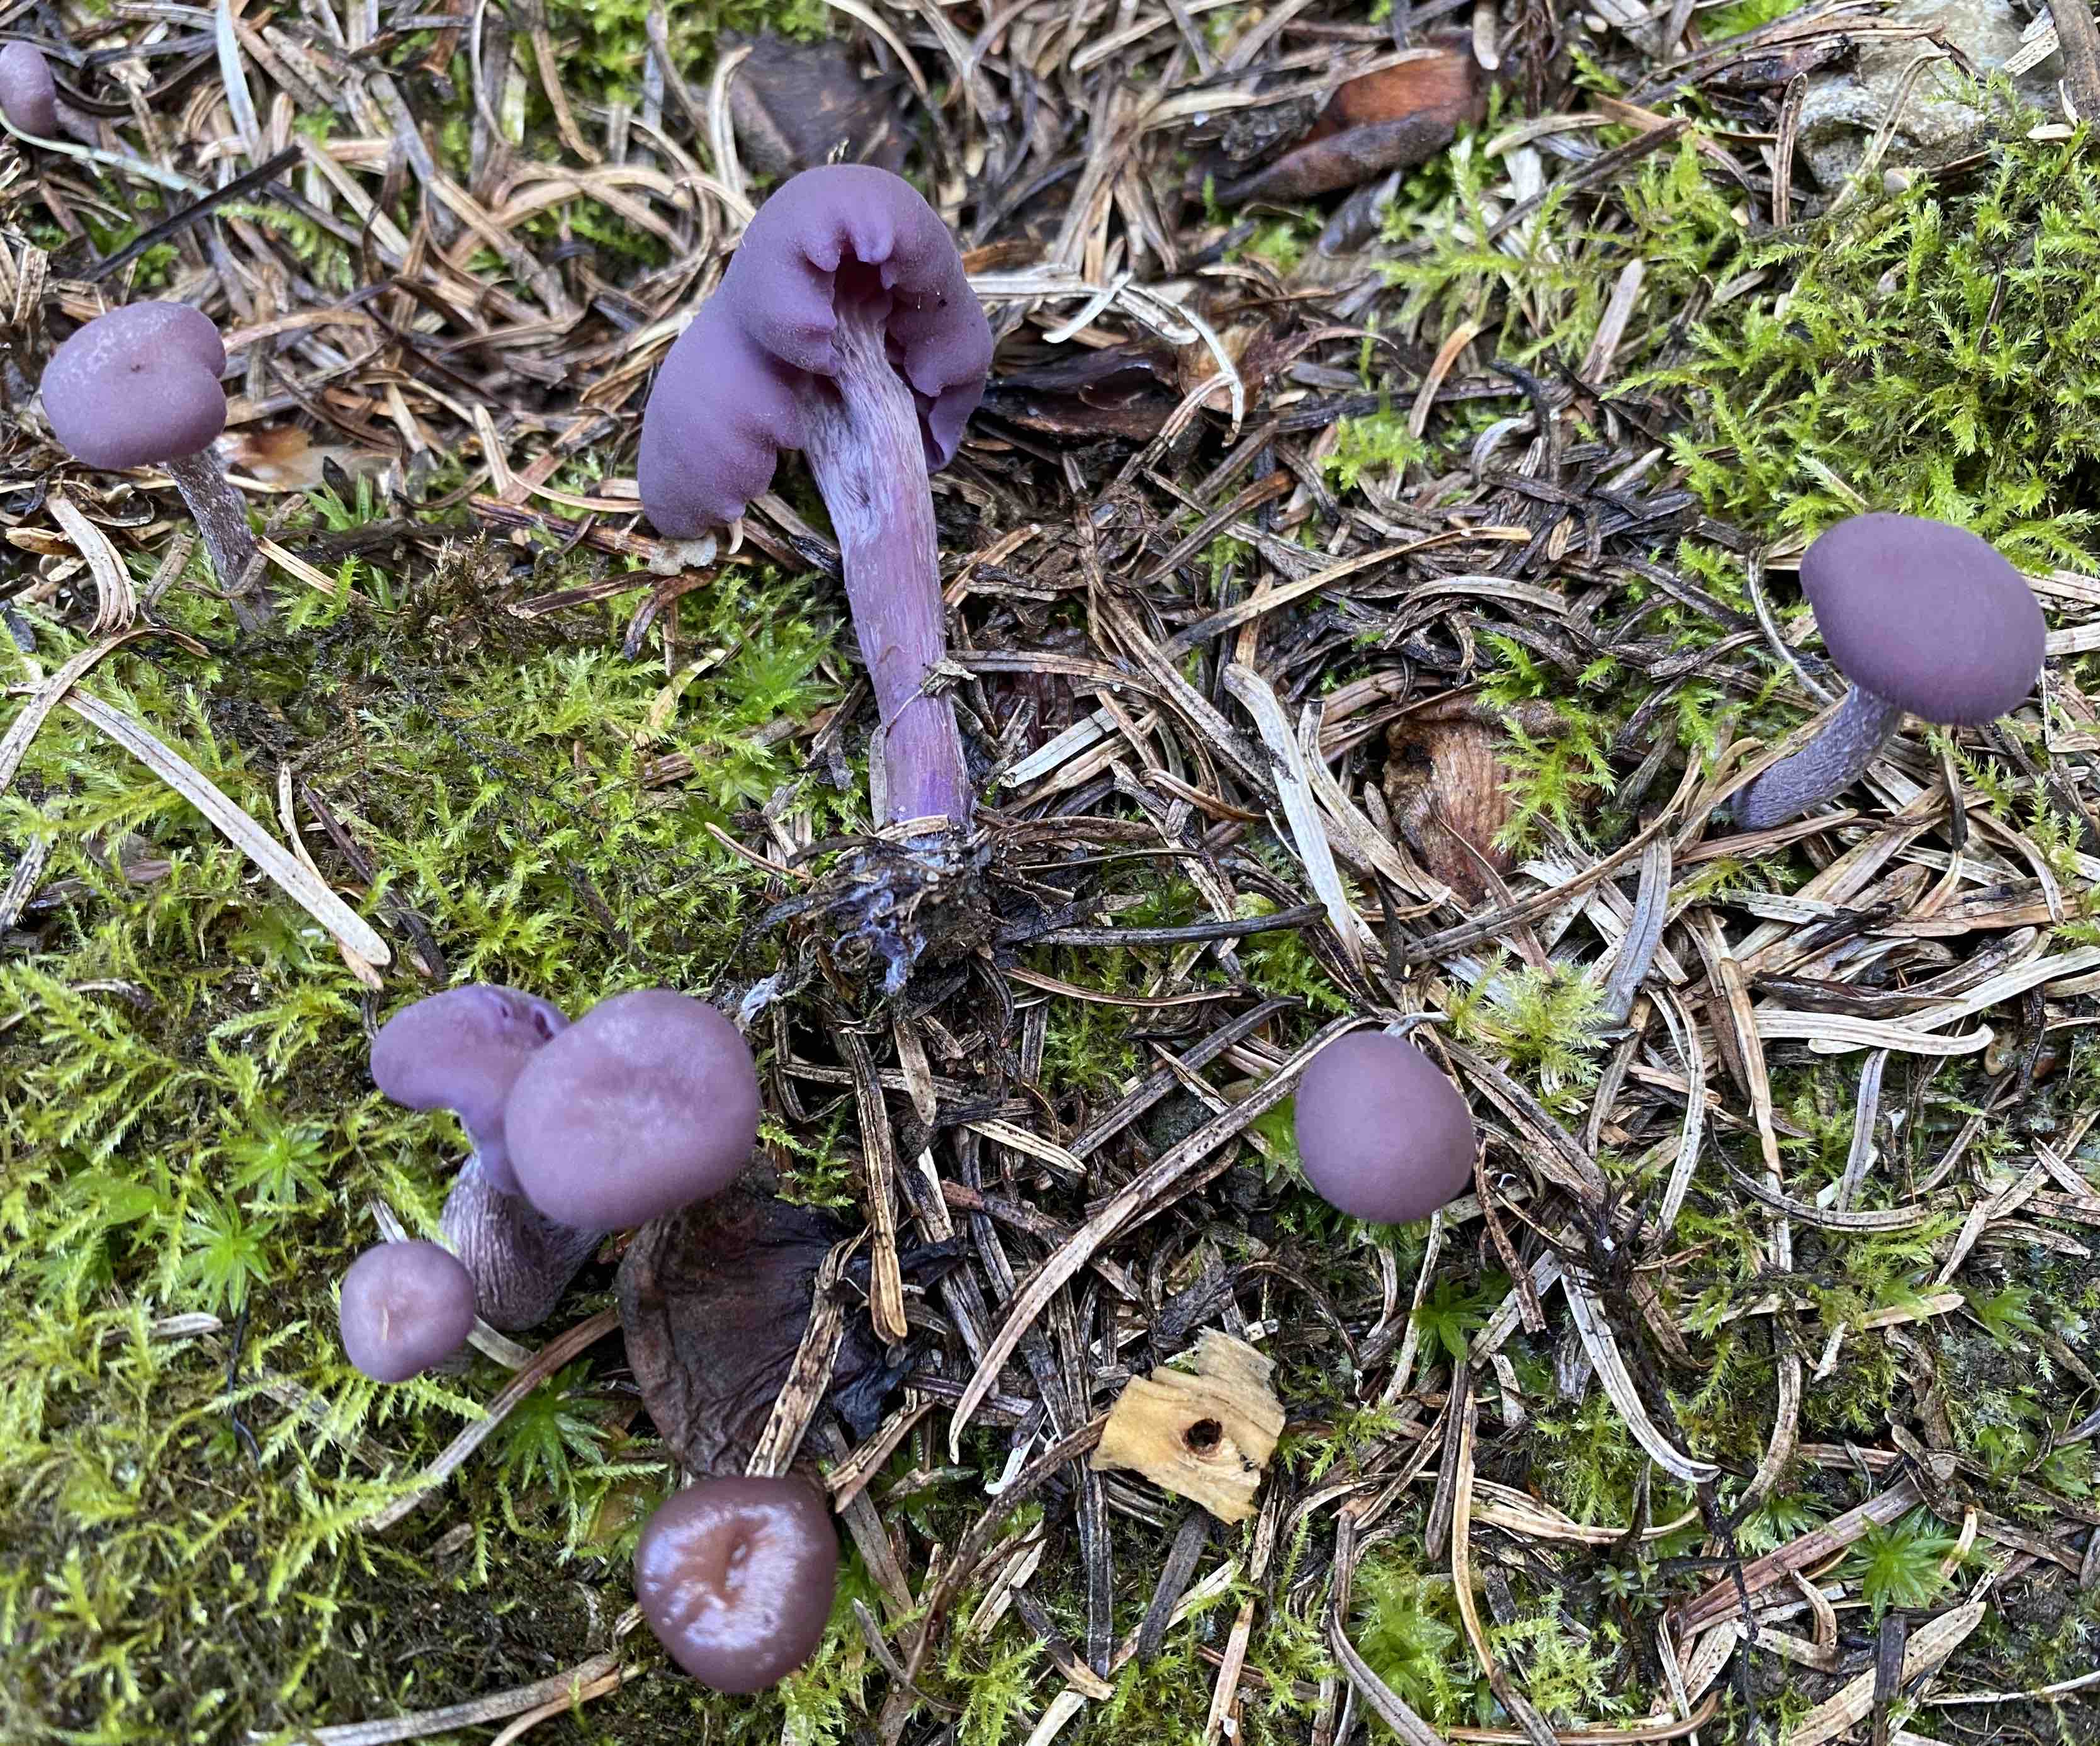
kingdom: Fungi
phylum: Basidiomycota
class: Agaricomycetes
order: Agaricales
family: Hydnangiaceae
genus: Laccaria
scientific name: Laccaria amethystina
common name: violet ametysthat
